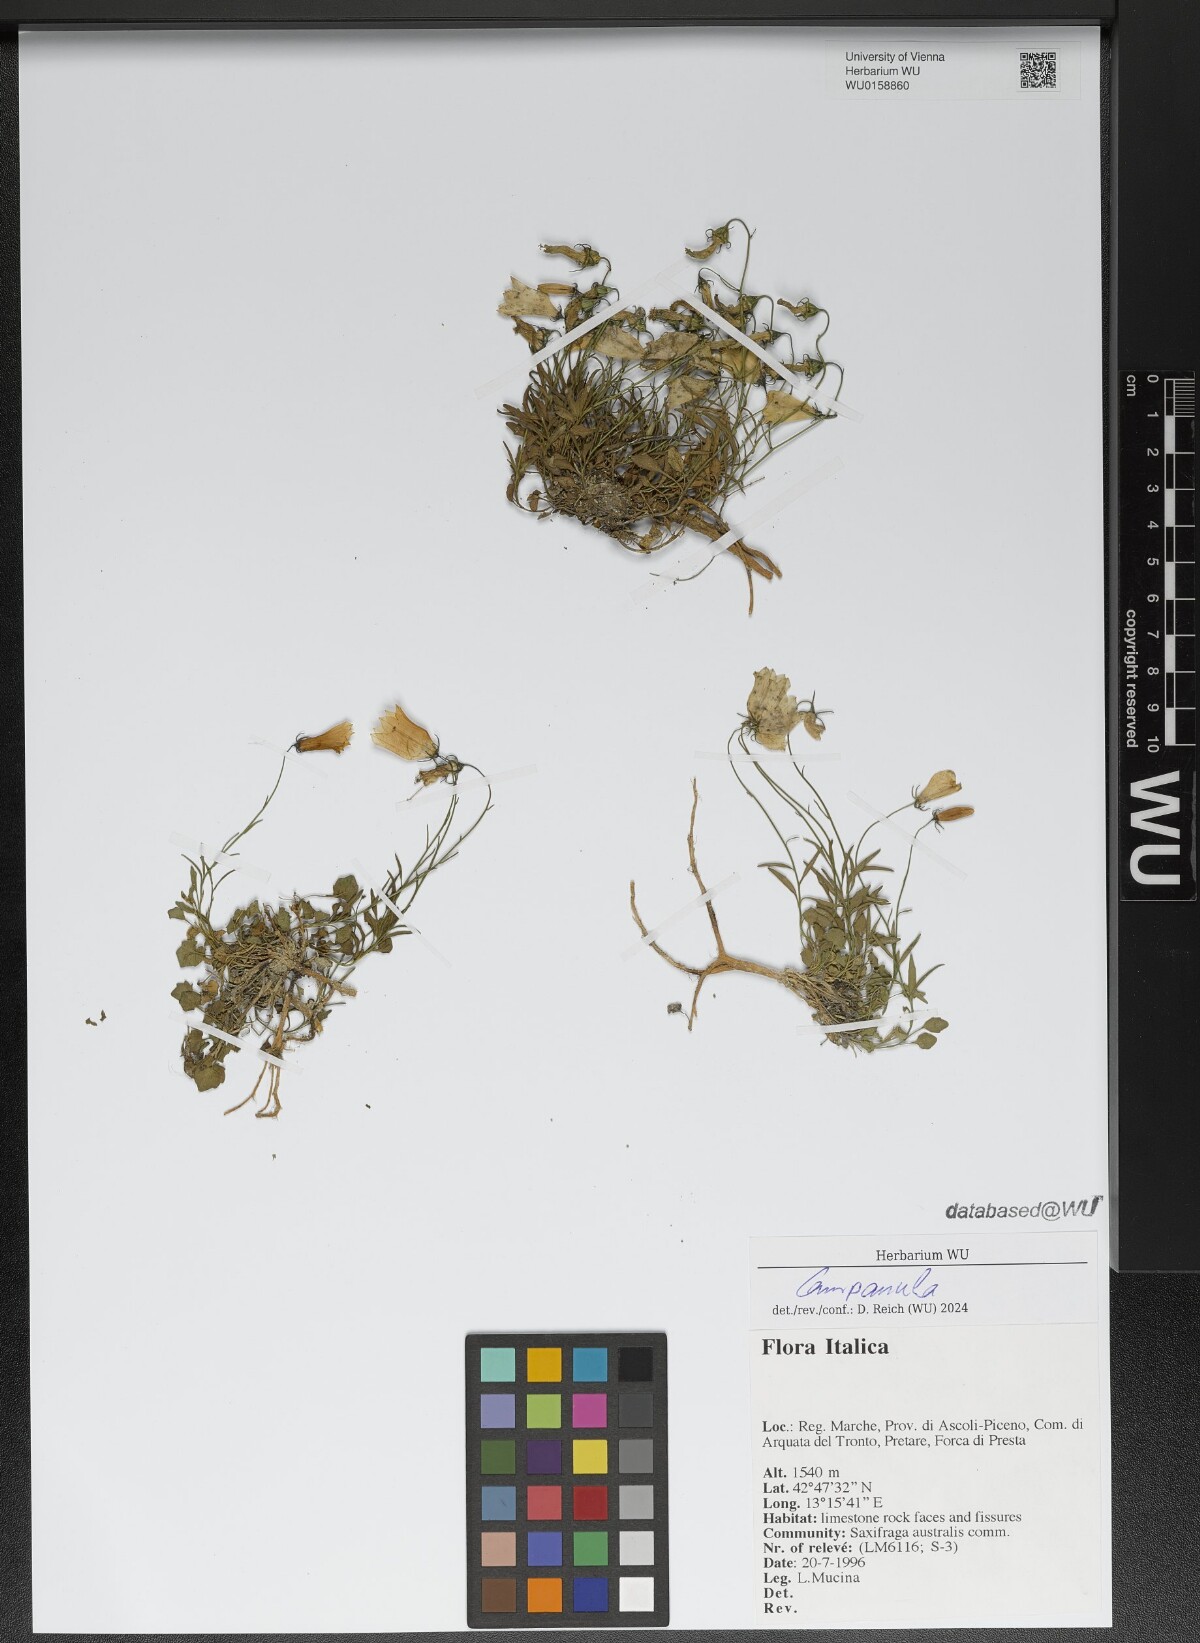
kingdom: Plantae
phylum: Tracheophyta
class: Magnoliopsida
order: Asterales
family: Campanulaceae
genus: Campanula
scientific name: Campanula
